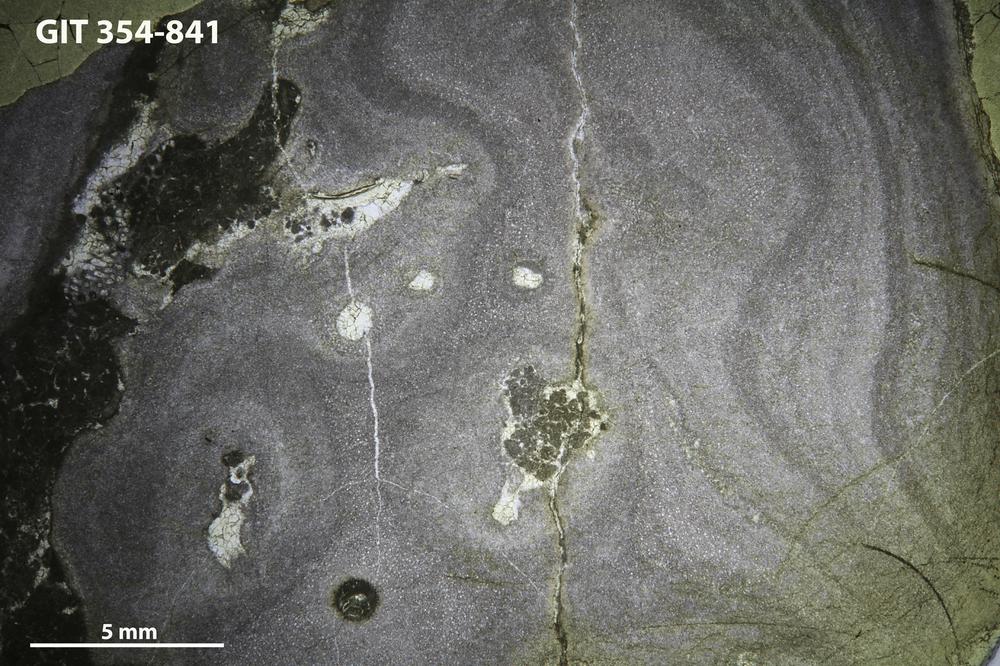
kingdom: Animalia
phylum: Porifera
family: Densastromatidae
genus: Densastroma
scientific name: Densastroma
